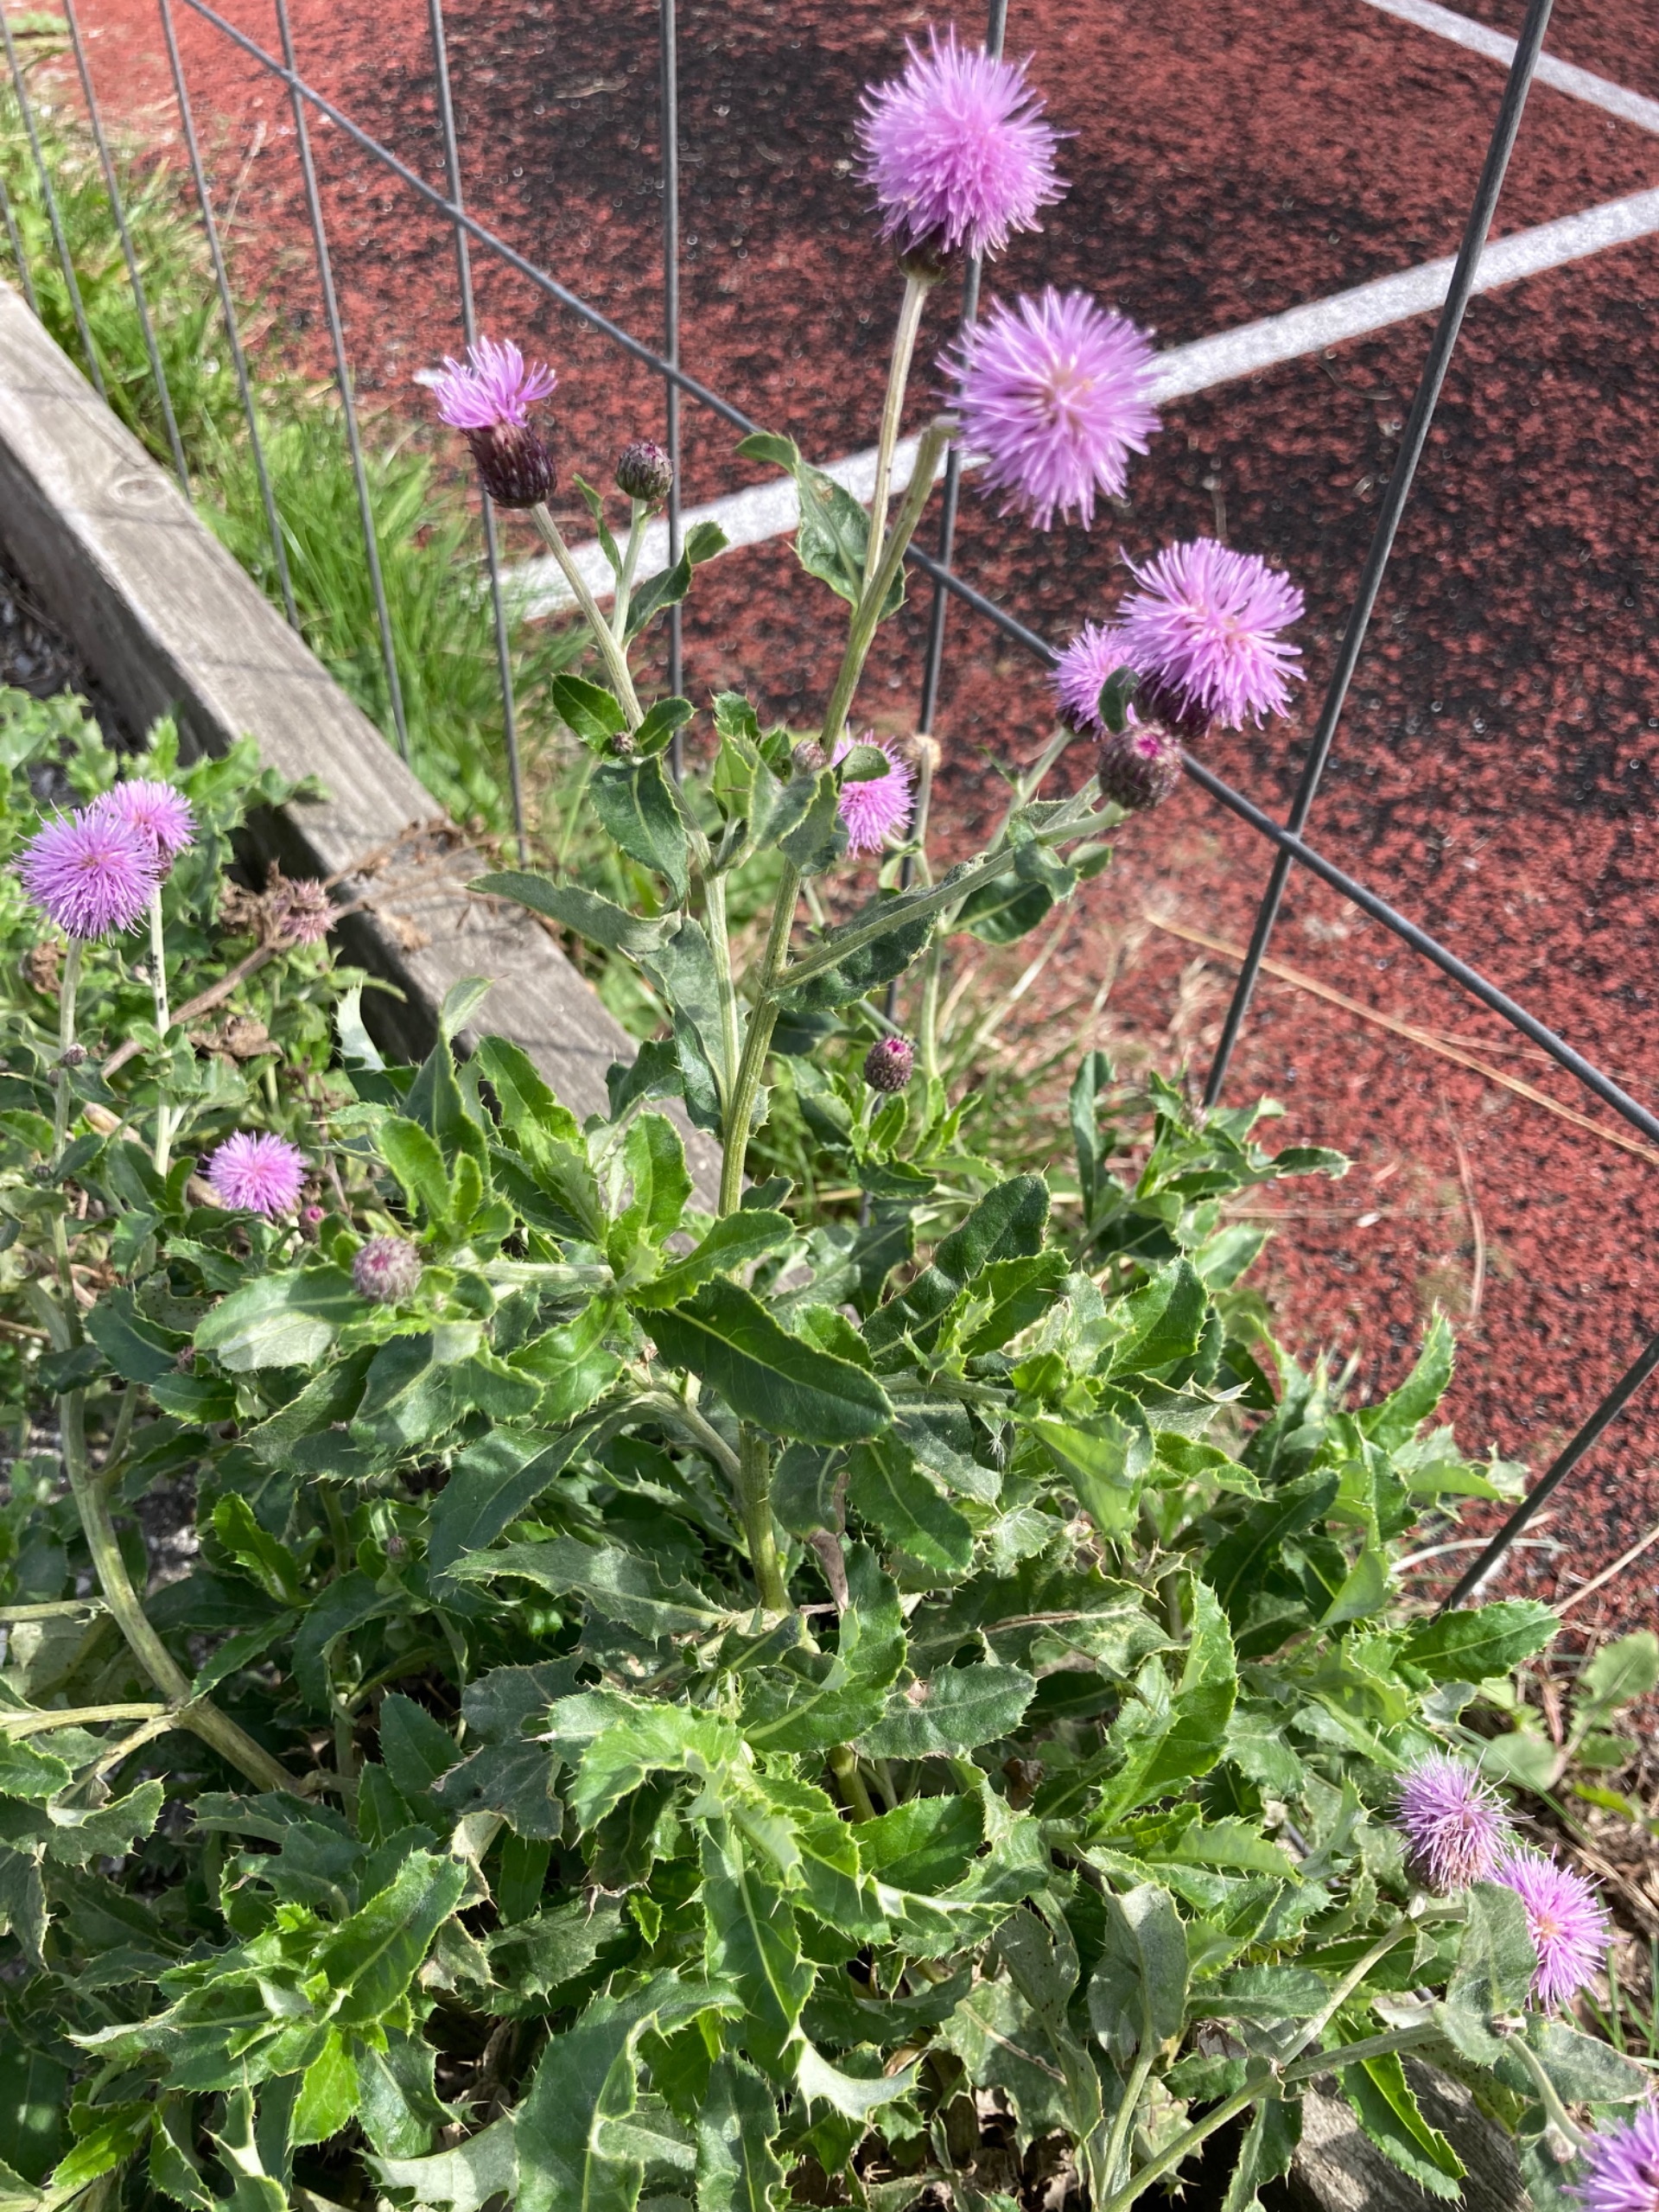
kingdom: Plantae
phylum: Tracheophyta
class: Magnoliopsida
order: Asterales
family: Asteraceae
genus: Cirsium
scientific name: Cirsium arvense
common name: Ager-tidsel
